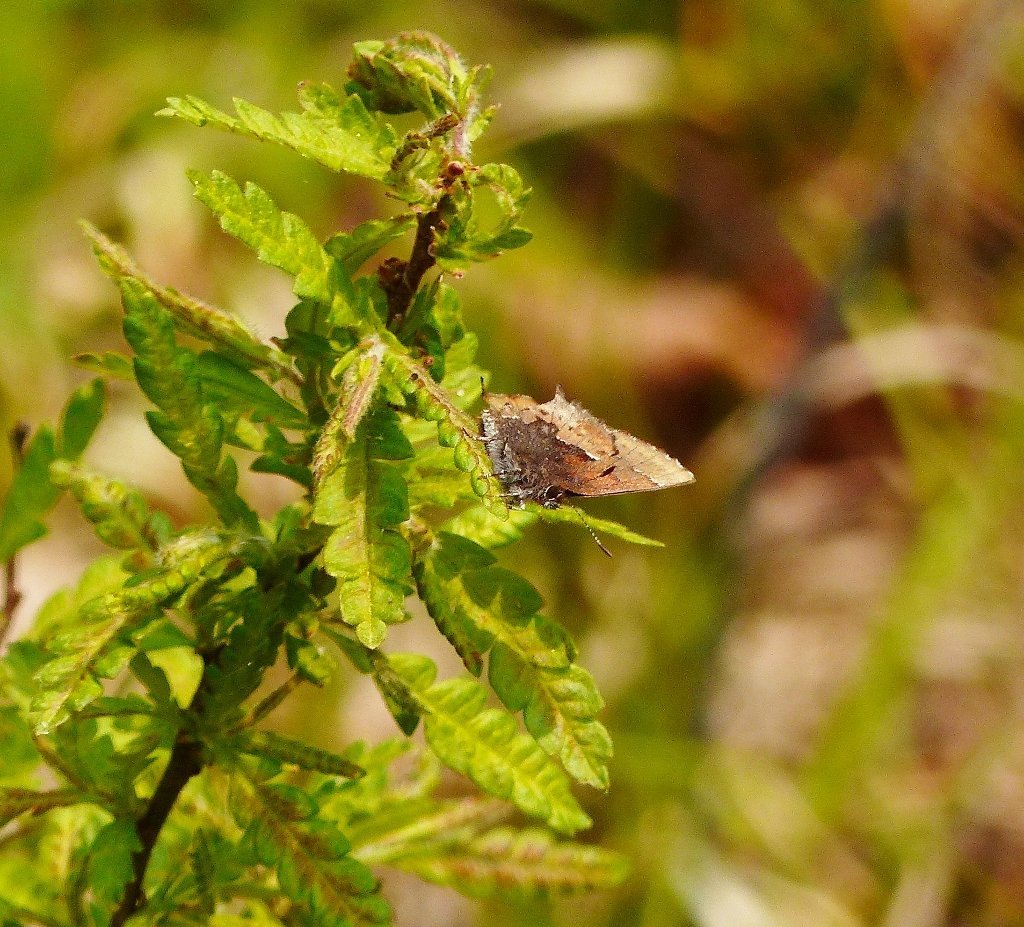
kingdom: Animalia
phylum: Arthropoda
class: Insecta
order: Lepidoptera
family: Lycaenidae
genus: Incisalia
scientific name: Incisalia henrici
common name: Henry's Elfin
